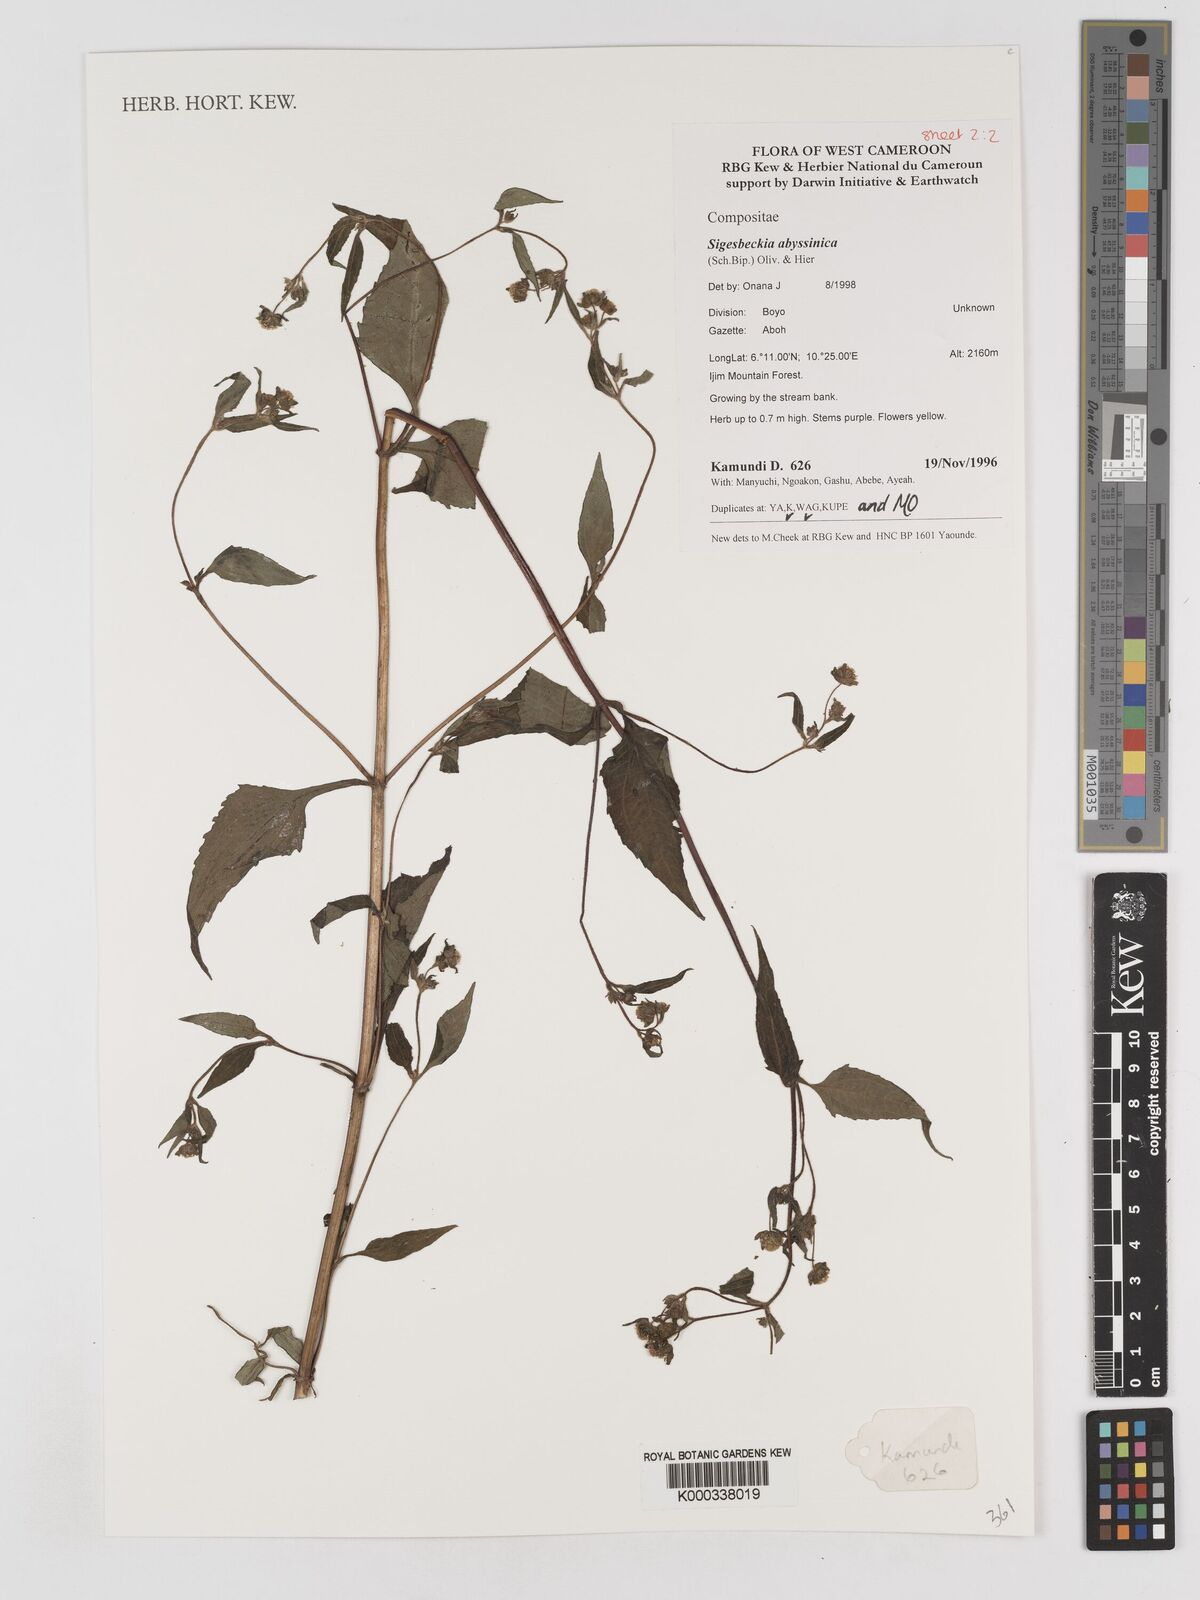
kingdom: Plantae
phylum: Tracheophyta
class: Magnoliopsida
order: Asterales
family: Asteraceae
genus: Micractis
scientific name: Micractis bojeri
